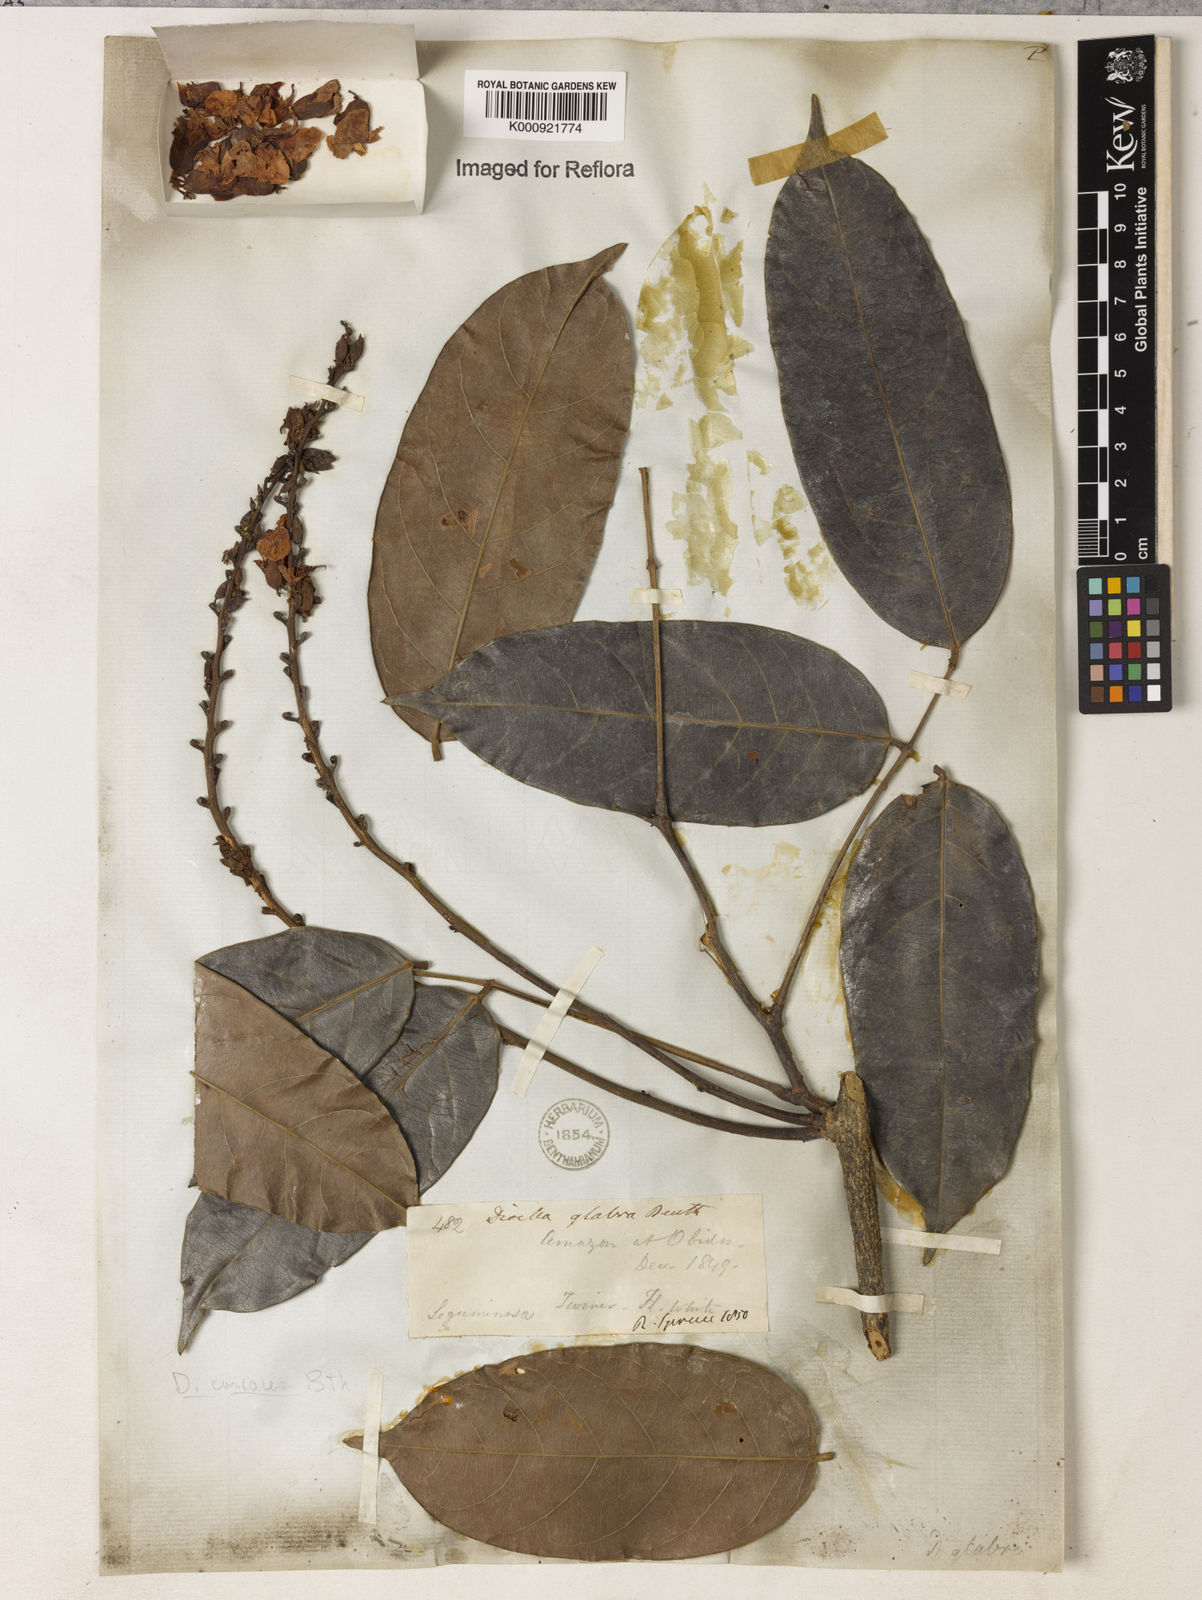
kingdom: Plantae
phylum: Tracheophyta
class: Magnoliopsida
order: Fabales
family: Fabaceae
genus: Macropsychanthus
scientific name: Macropsychanthus glaber
